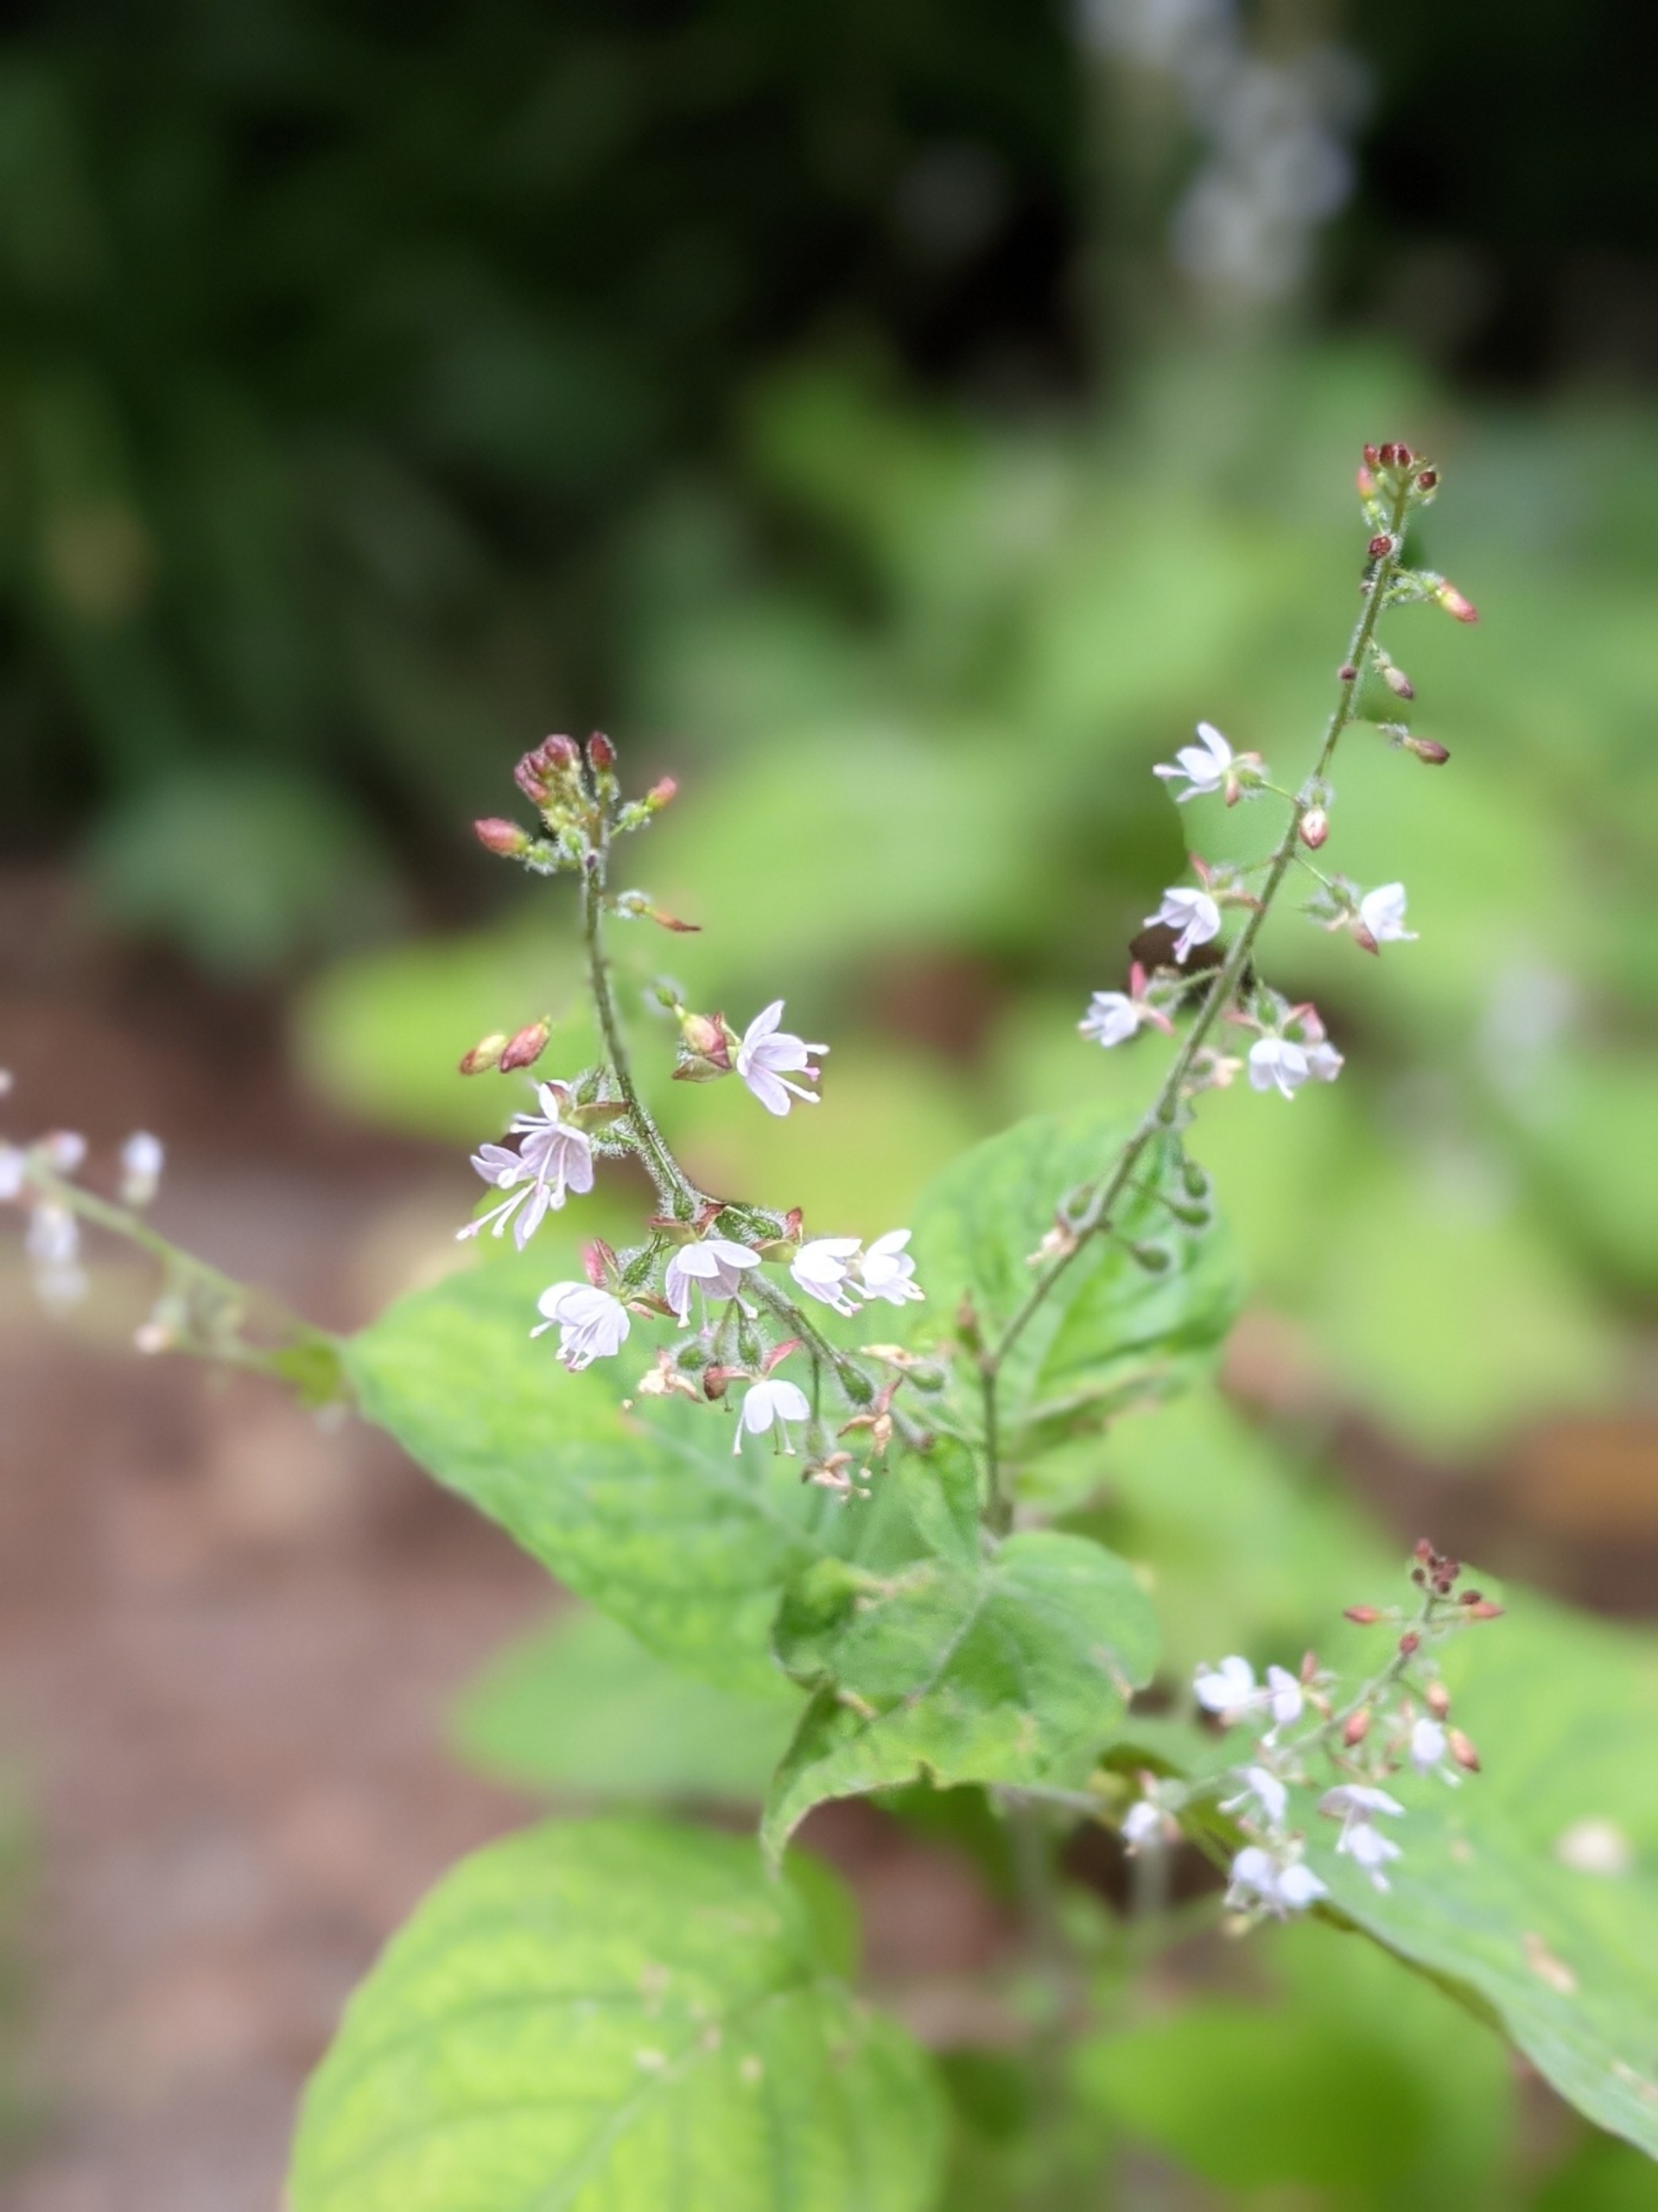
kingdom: Plantae
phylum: Tracheophyta
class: Magnoliopsida
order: Myrtales
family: Onagraceae
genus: Circaea
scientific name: Circaea lutetiana
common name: Dunet steffensurt
